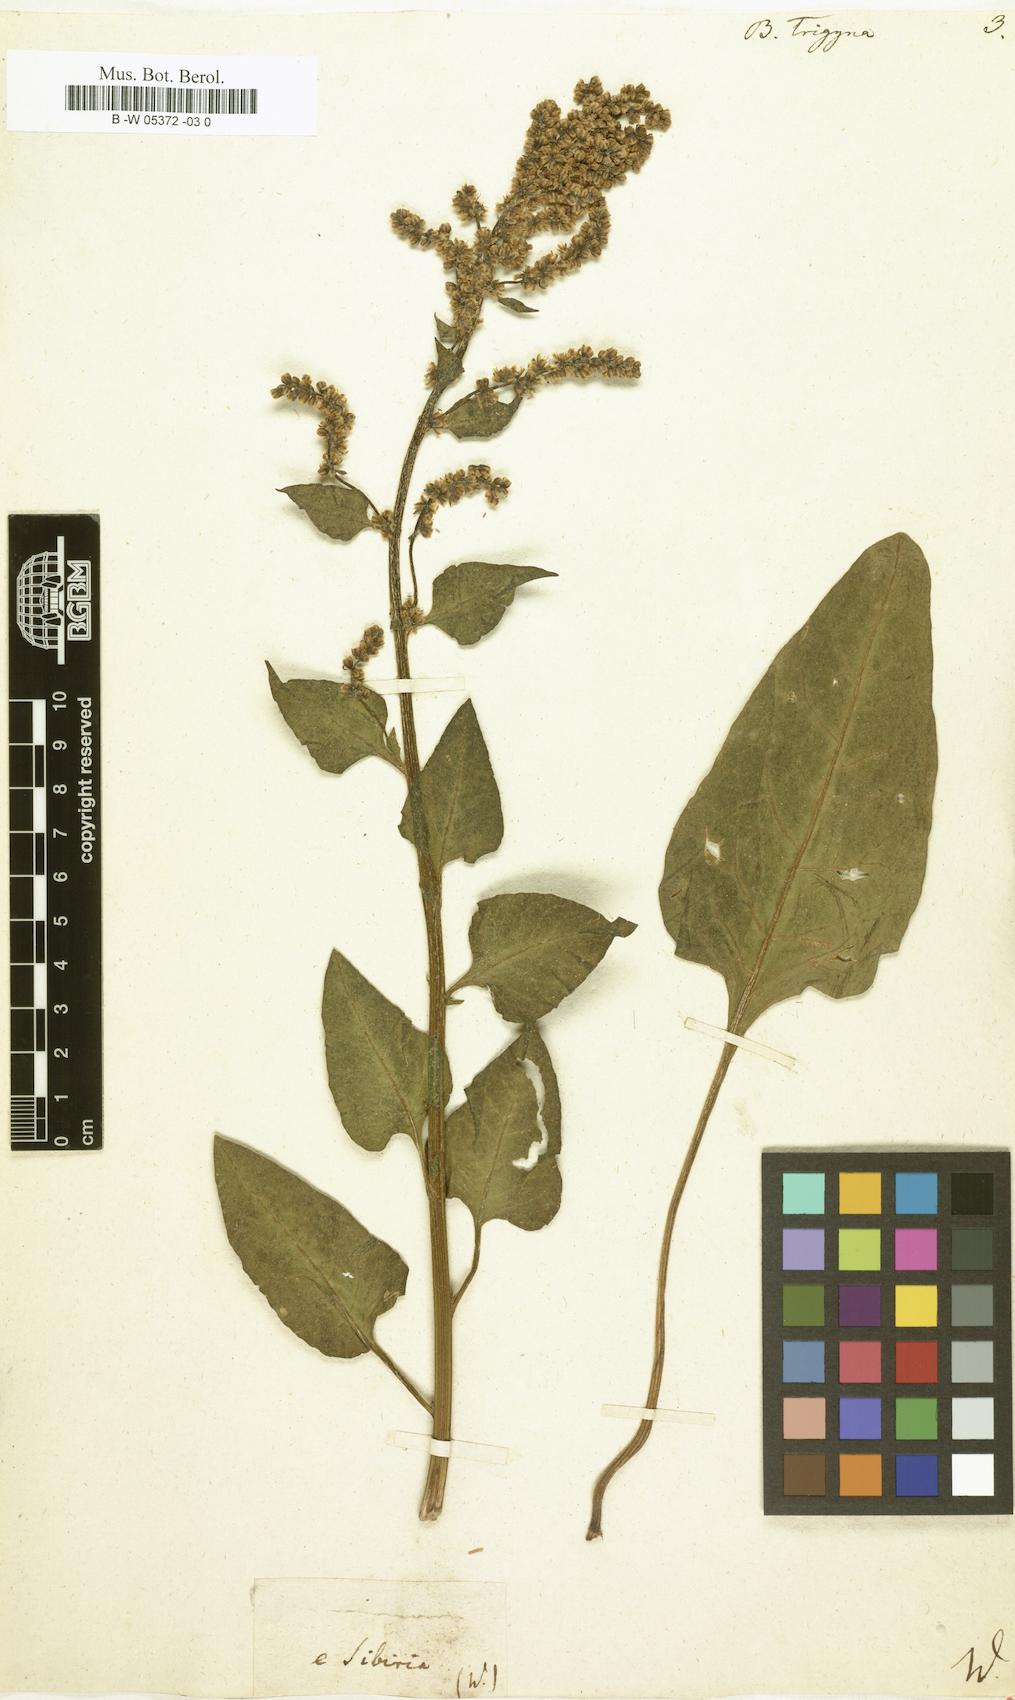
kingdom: Plantae
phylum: Tracheophyta
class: Magnoliopsida
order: Caryophyllales
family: Amaranthaceae
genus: Beta
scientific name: Beta trigyna
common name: Caucasian beet
